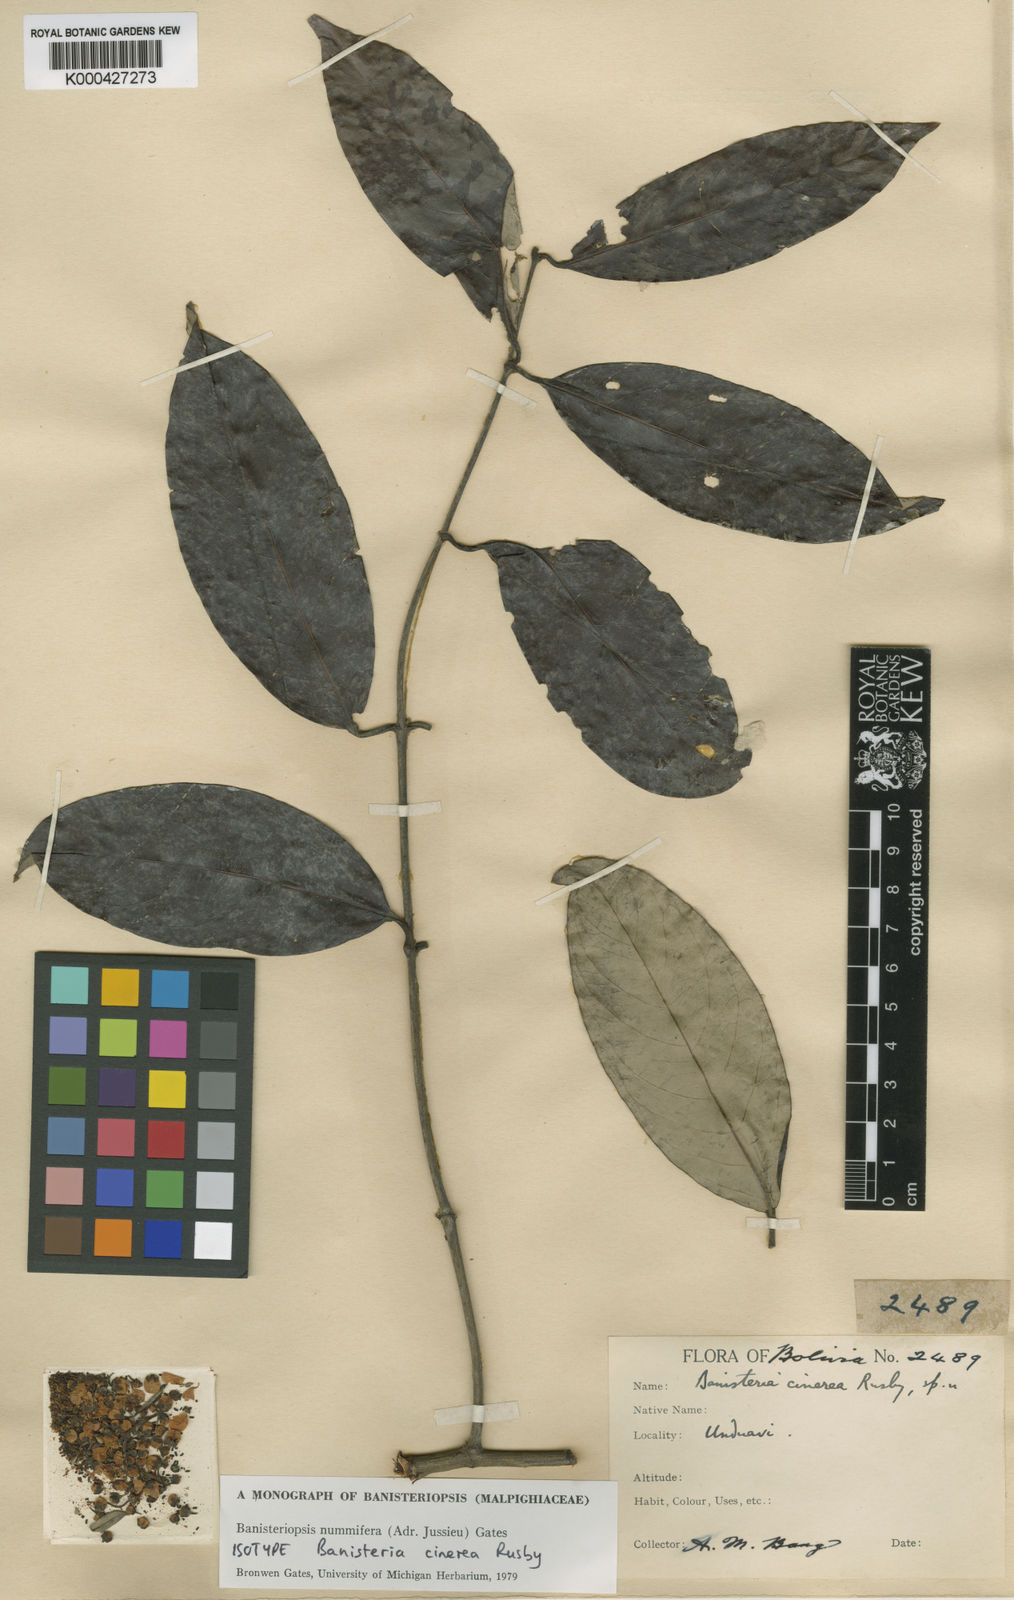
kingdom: Plantae
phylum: Tracheophyta
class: Magnoliopsida
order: Malpighiales
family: Malpighiaceae
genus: Banisteriopsis
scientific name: Banisteriopsis nummifera
